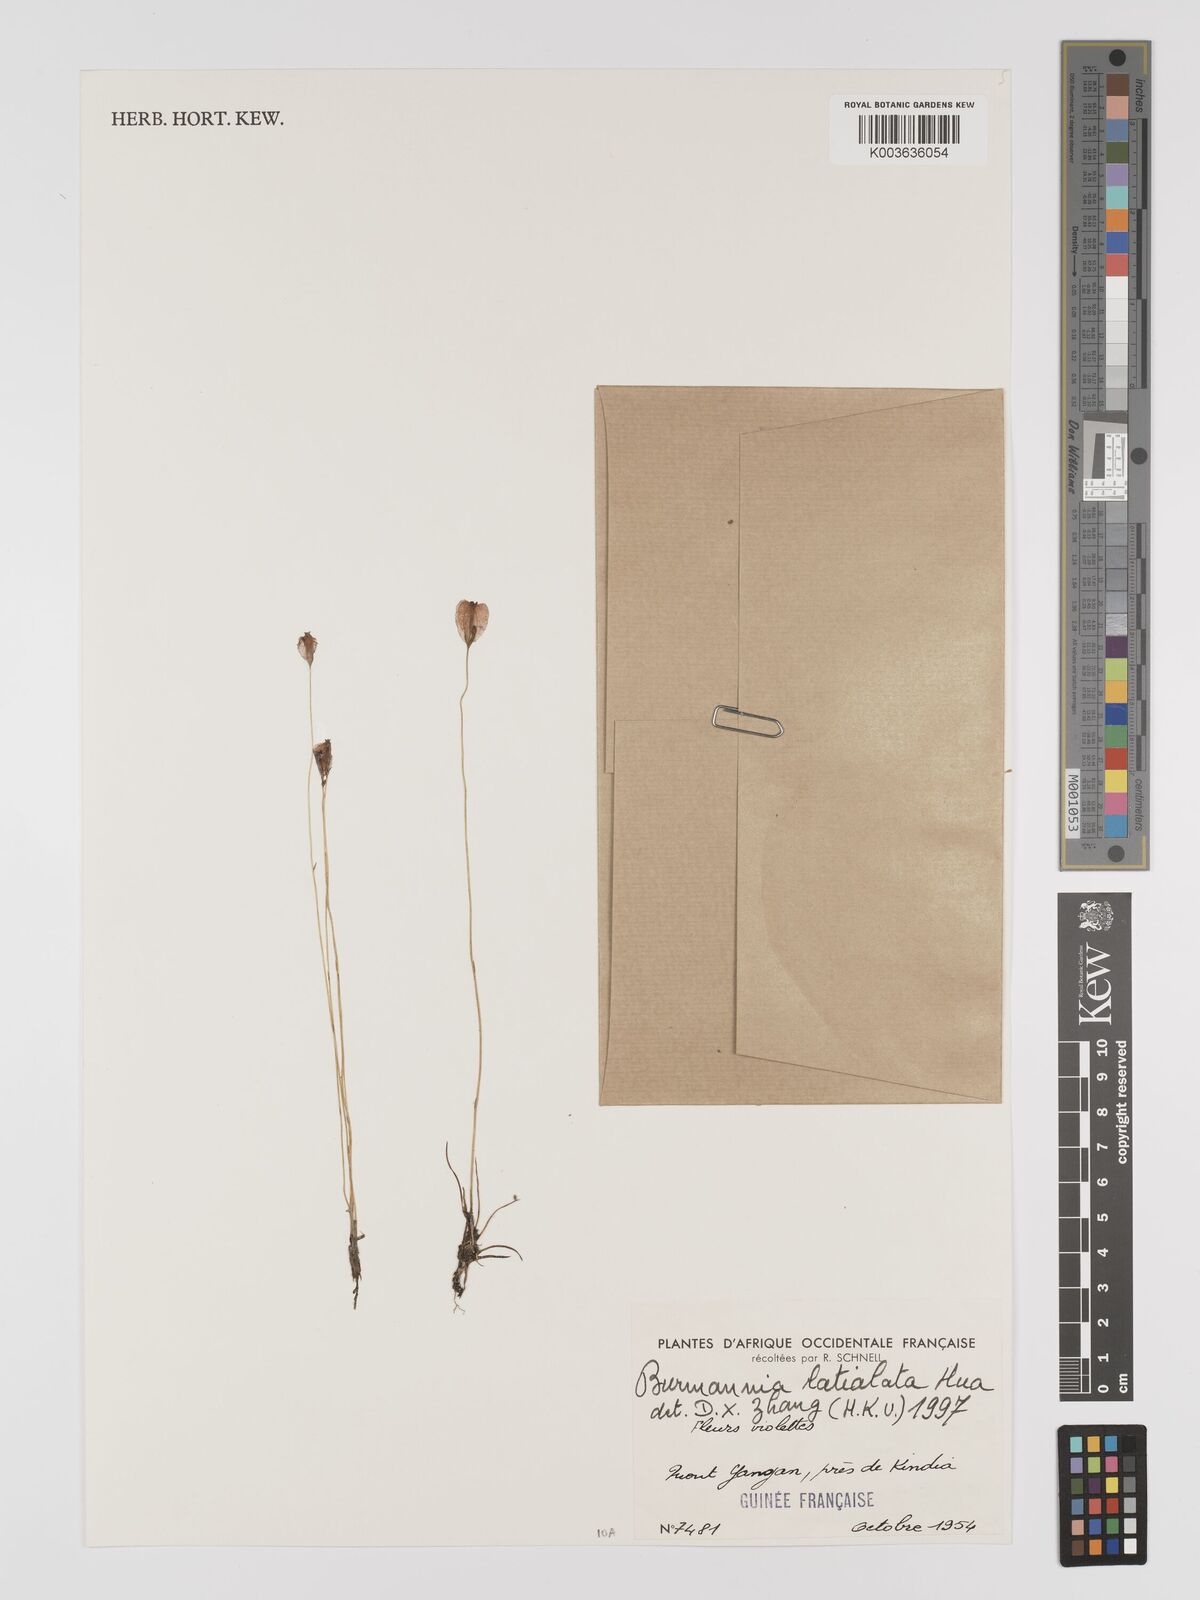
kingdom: Plantae
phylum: Tracheophyta
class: Liliopsida
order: Dioscoreales
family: Burmanniaceae
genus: Burmannia
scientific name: Burmannia madagascariensis
